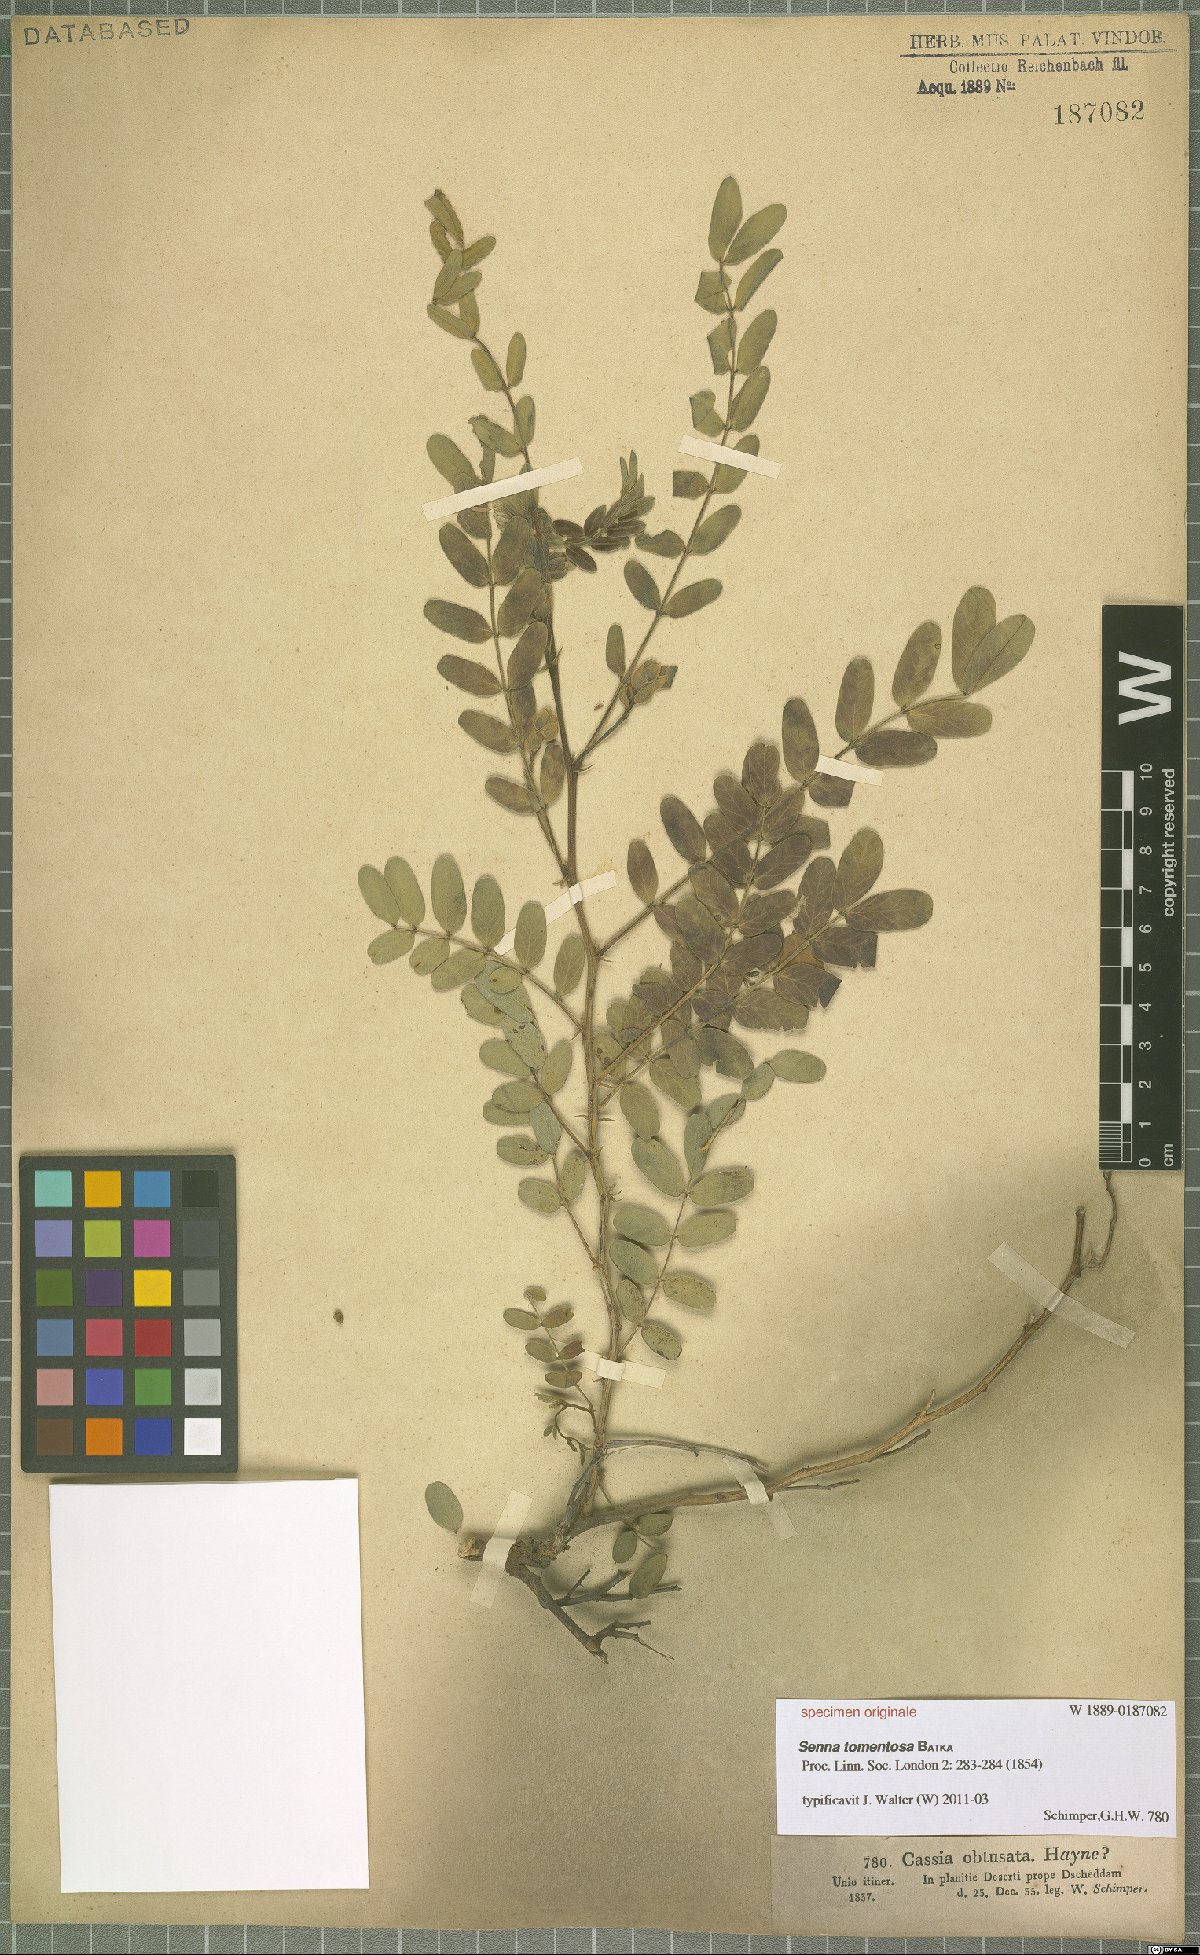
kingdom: Plantae
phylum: Tracheophyta
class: Magnoliopsida
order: Fabales
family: Fabaceae
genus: Senna
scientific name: Senna holosericea
